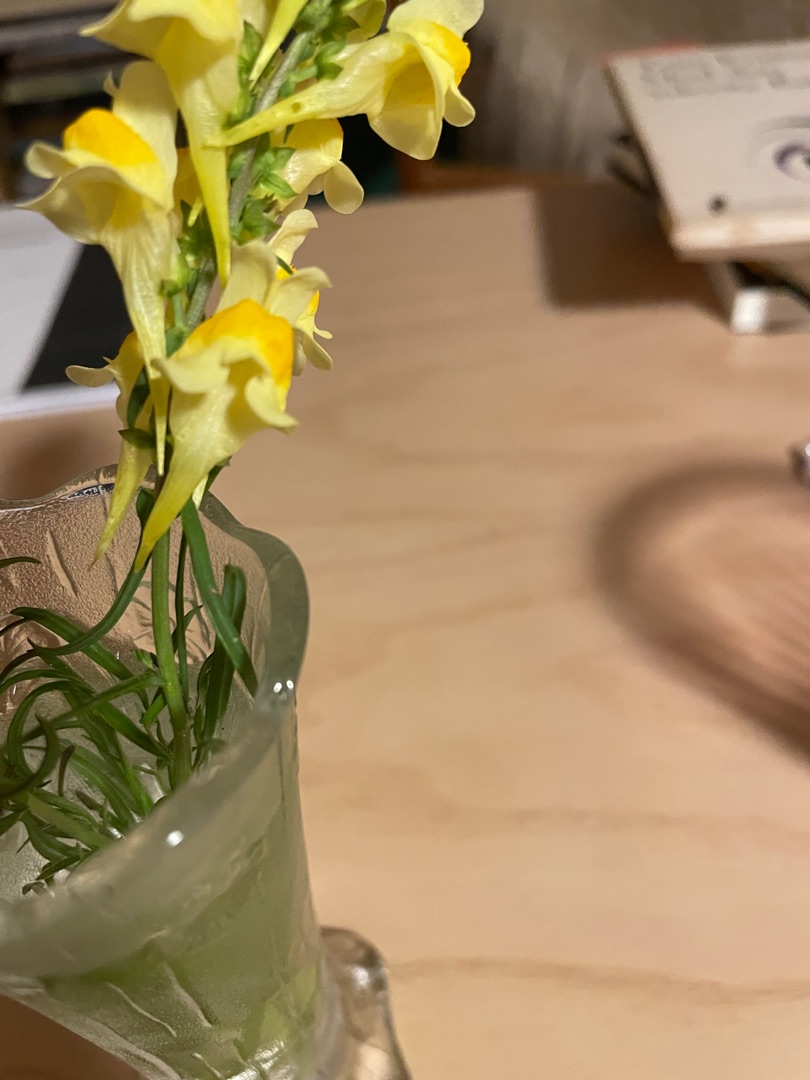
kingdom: Plantae
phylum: Tracheophyta
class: Magnoliopsida
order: Lamiales
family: Plantaginaceae
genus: Linaria
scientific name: Linaria vulgaris
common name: Almindelig torskemund
